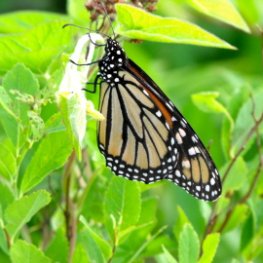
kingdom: Animalia
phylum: Arthropoda
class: Insecta
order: Lepidoptera
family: Nymphalidae
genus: Danaus
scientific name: Danaus plexippus
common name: Monarch
